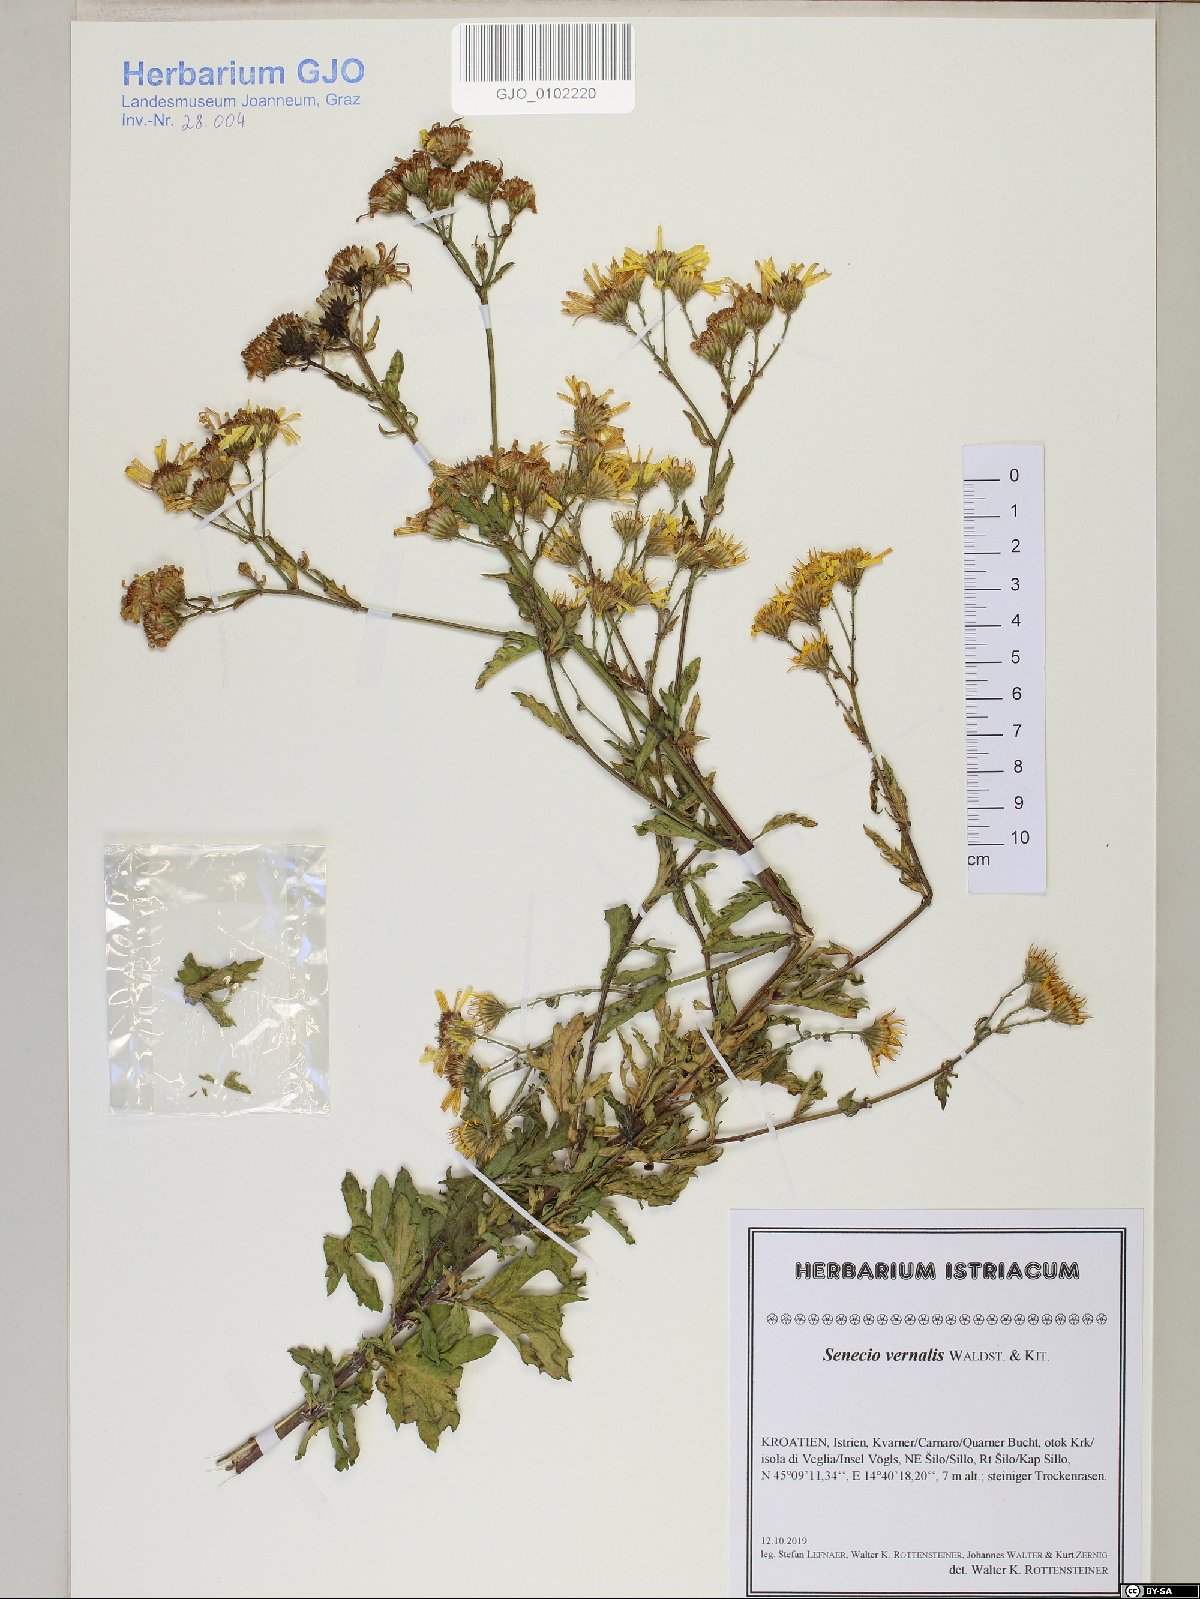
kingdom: Plantae
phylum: Tracheophyta
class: Magnoliopsida
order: Asterales
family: Asteraceae
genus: Senecio
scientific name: Senecio vernalis
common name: Eastern groundsel
